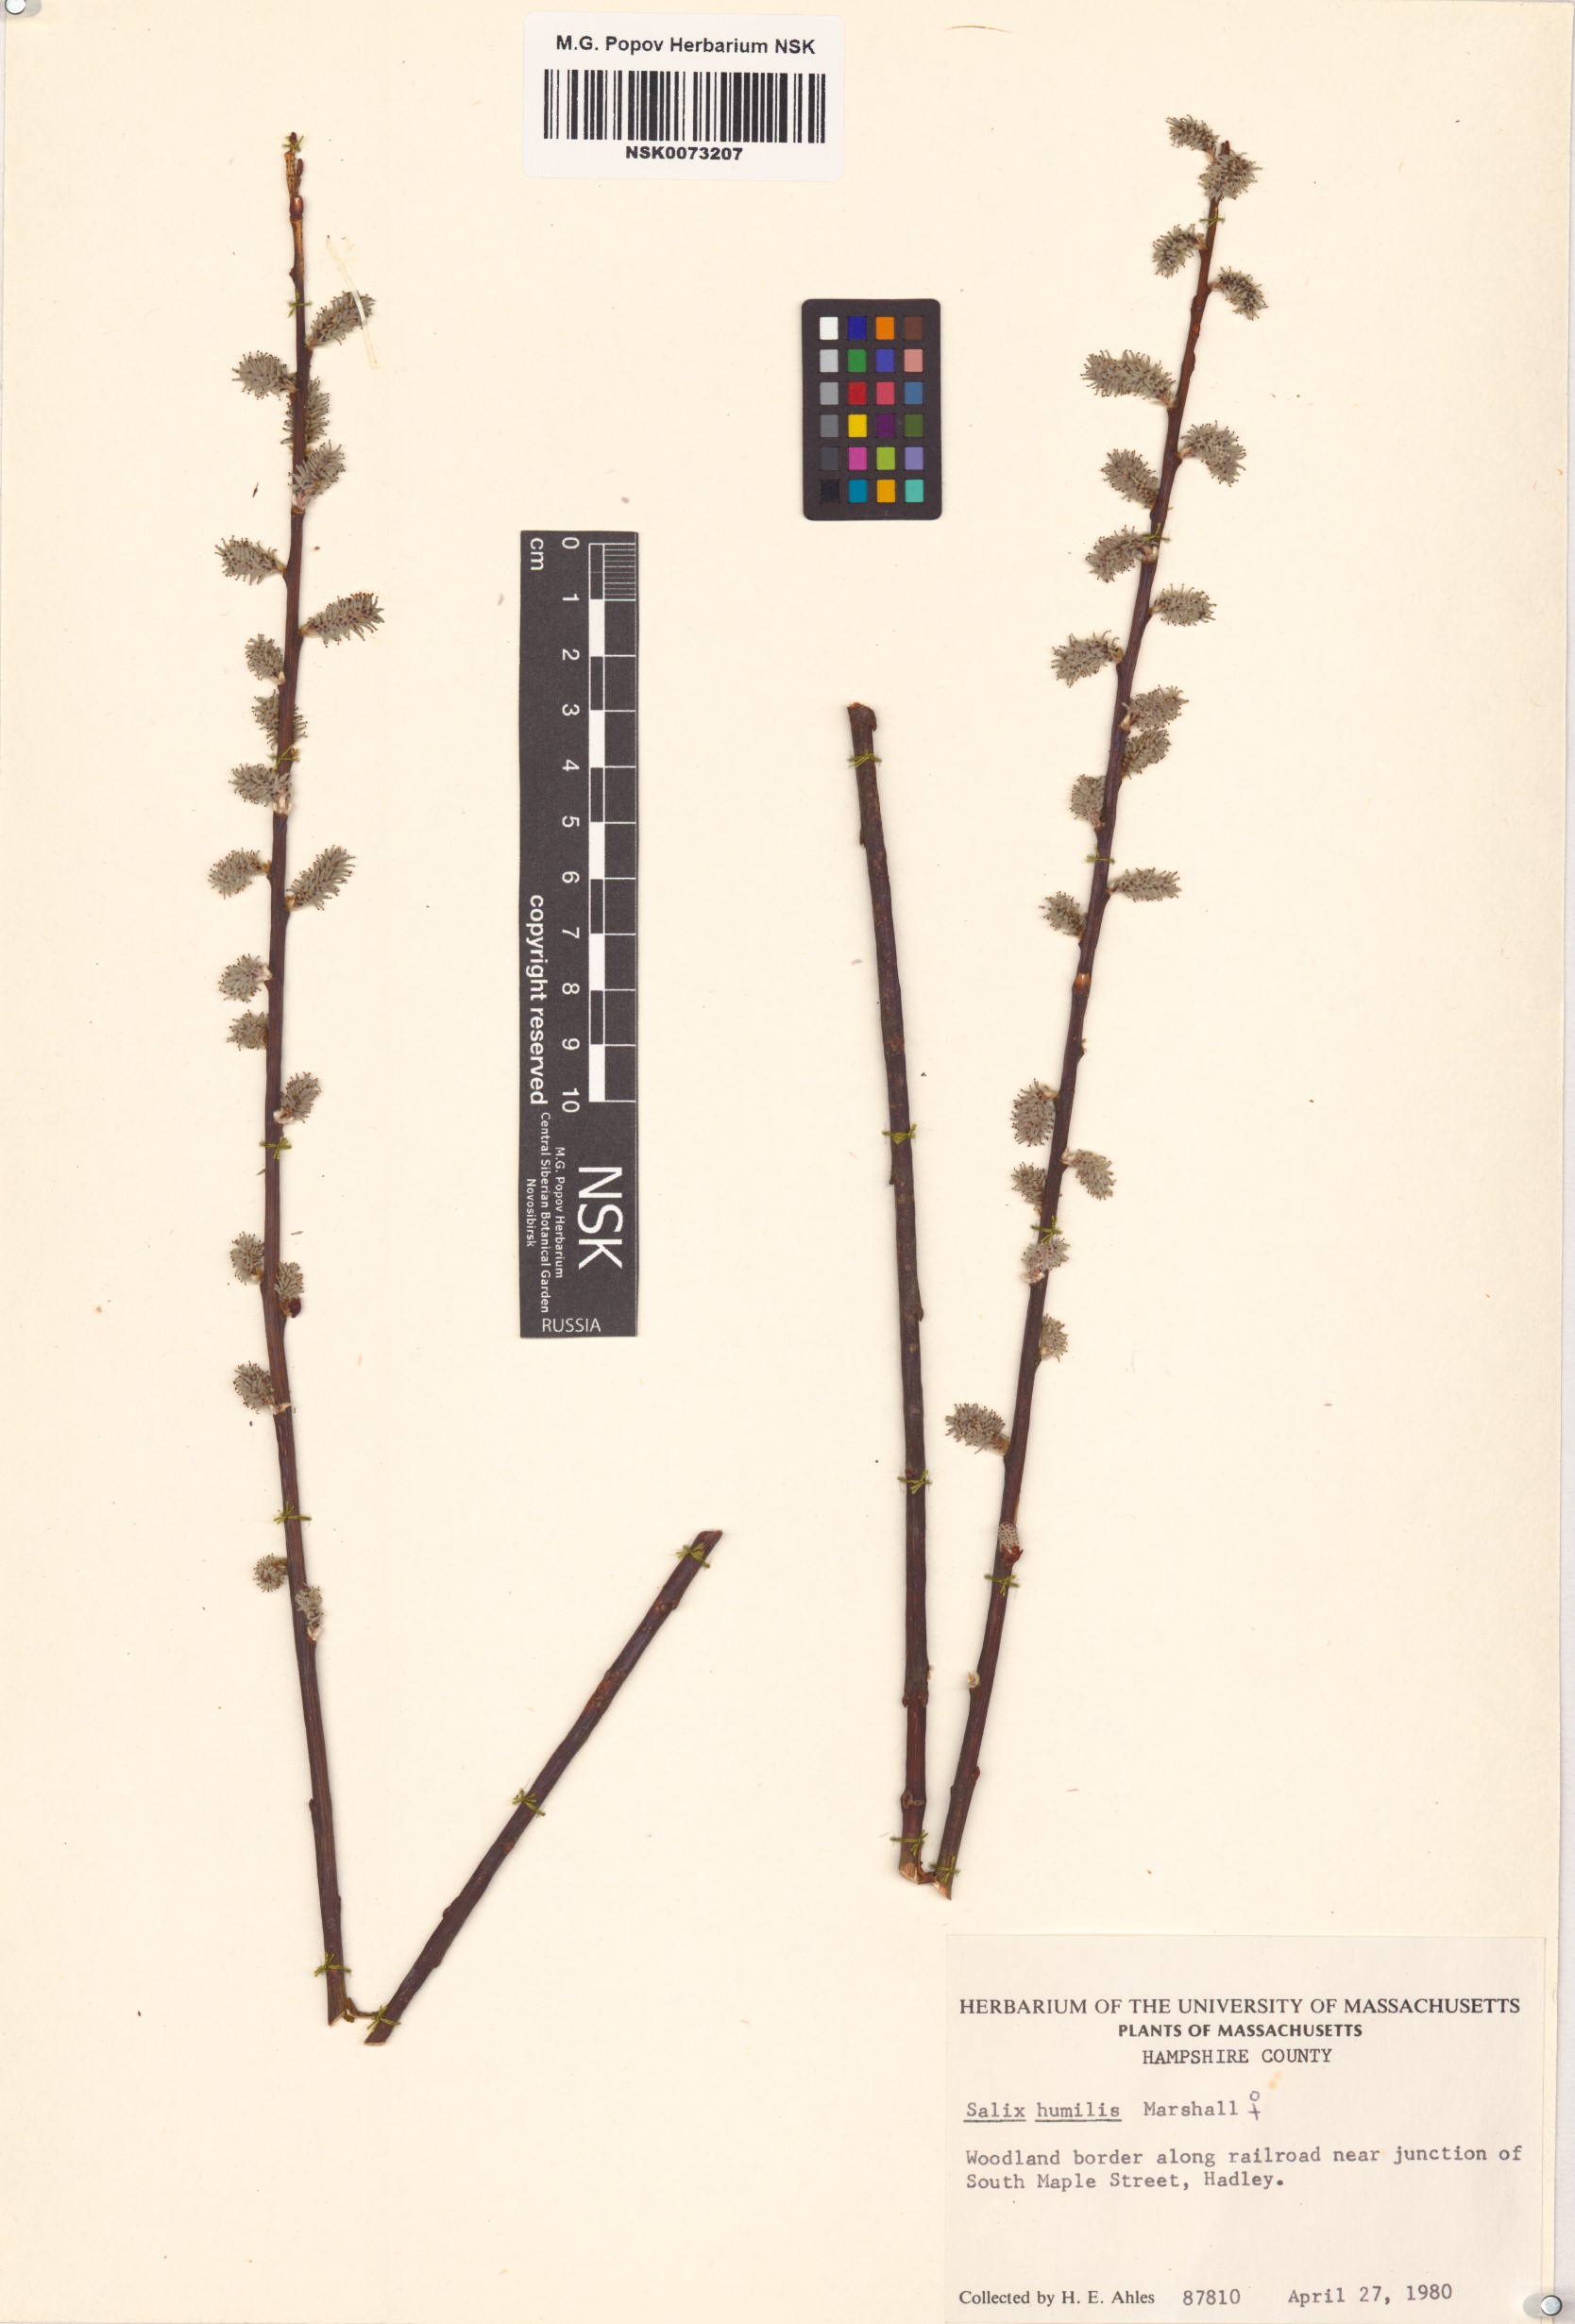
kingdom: Plantae
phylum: Tracheophyta
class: Magnoliopsida
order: Malpighiales
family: Salicaceae
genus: Salix
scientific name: Salix humilis
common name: Prairie willow
